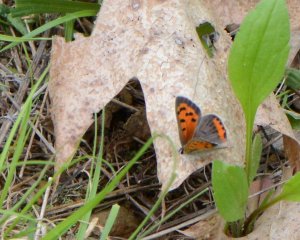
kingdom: Animalia
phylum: Arthropoda
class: Insecta
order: Lepidoptera
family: Lycaenidae
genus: Lycaena
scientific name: Lycaena phlaeas
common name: American Copper
